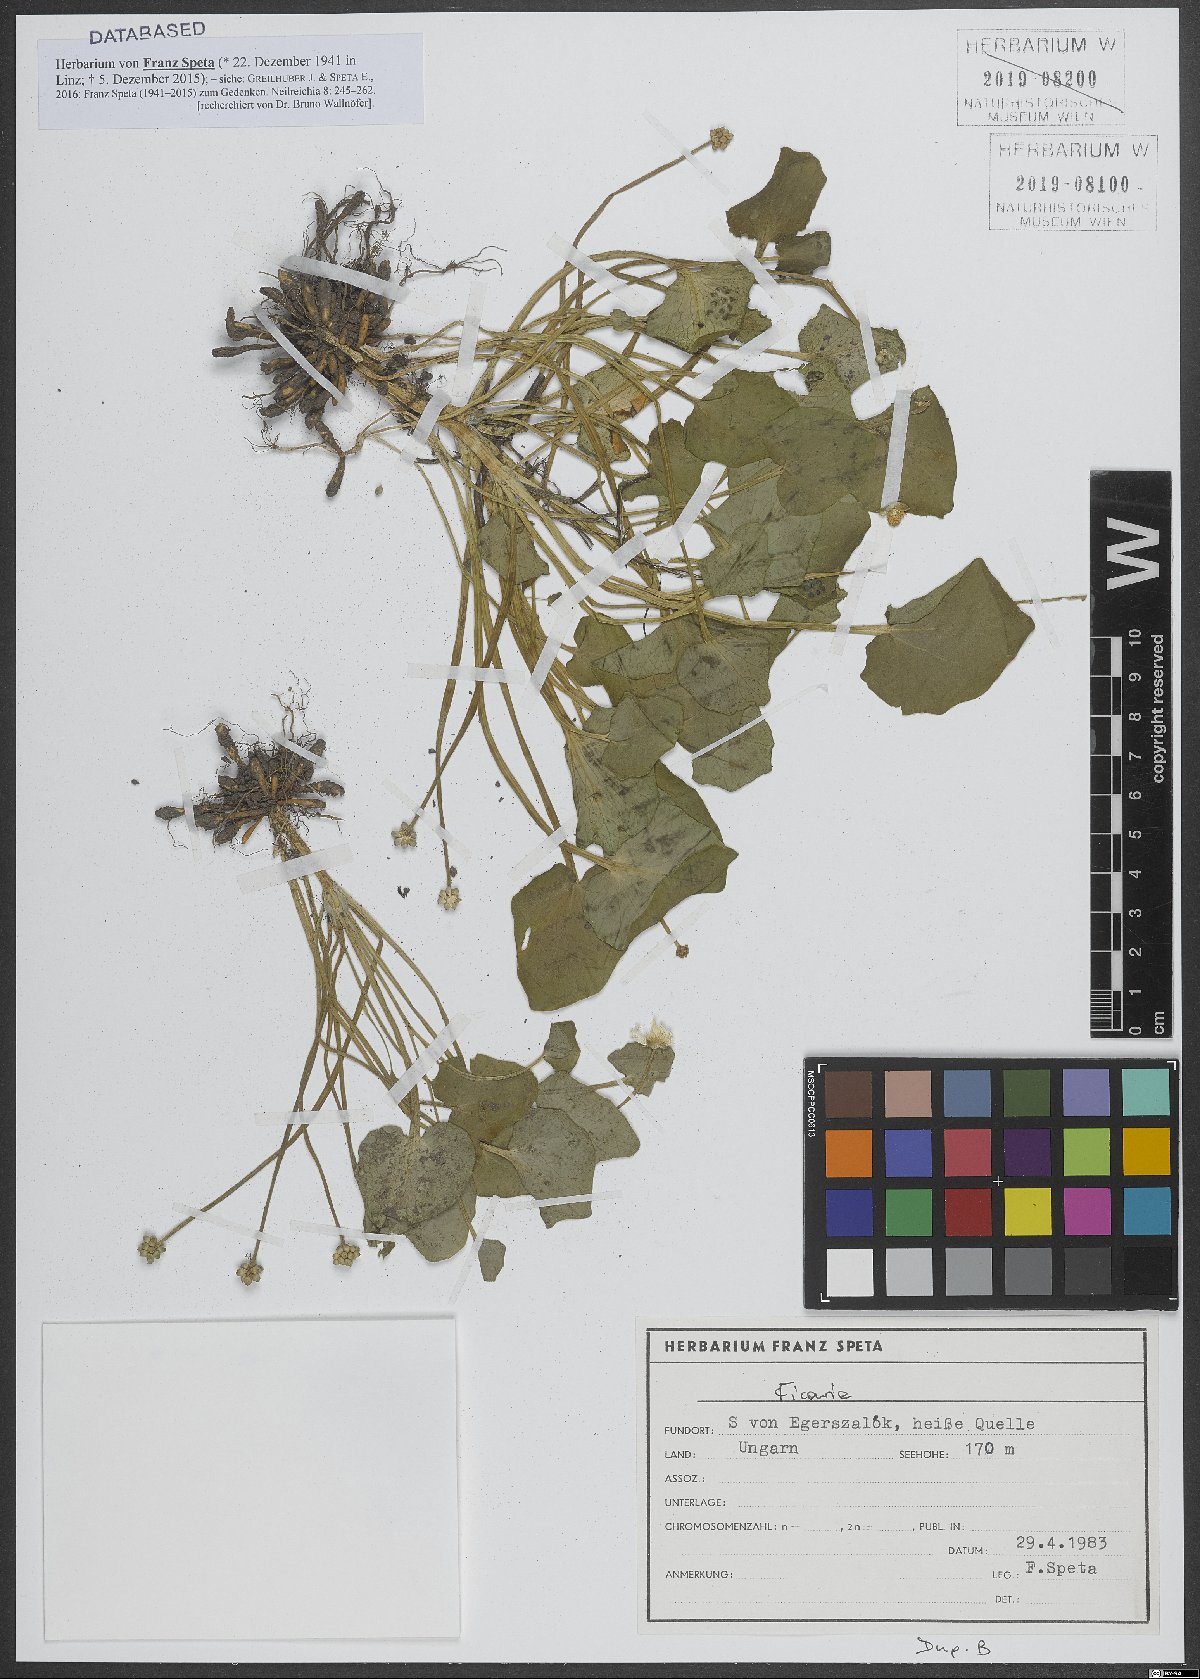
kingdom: Plantae
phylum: Tracheophyta
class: Magnoliopsida
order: Ranunculales
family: Ranunculaceae
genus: Ficaria
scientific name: Ficaria
